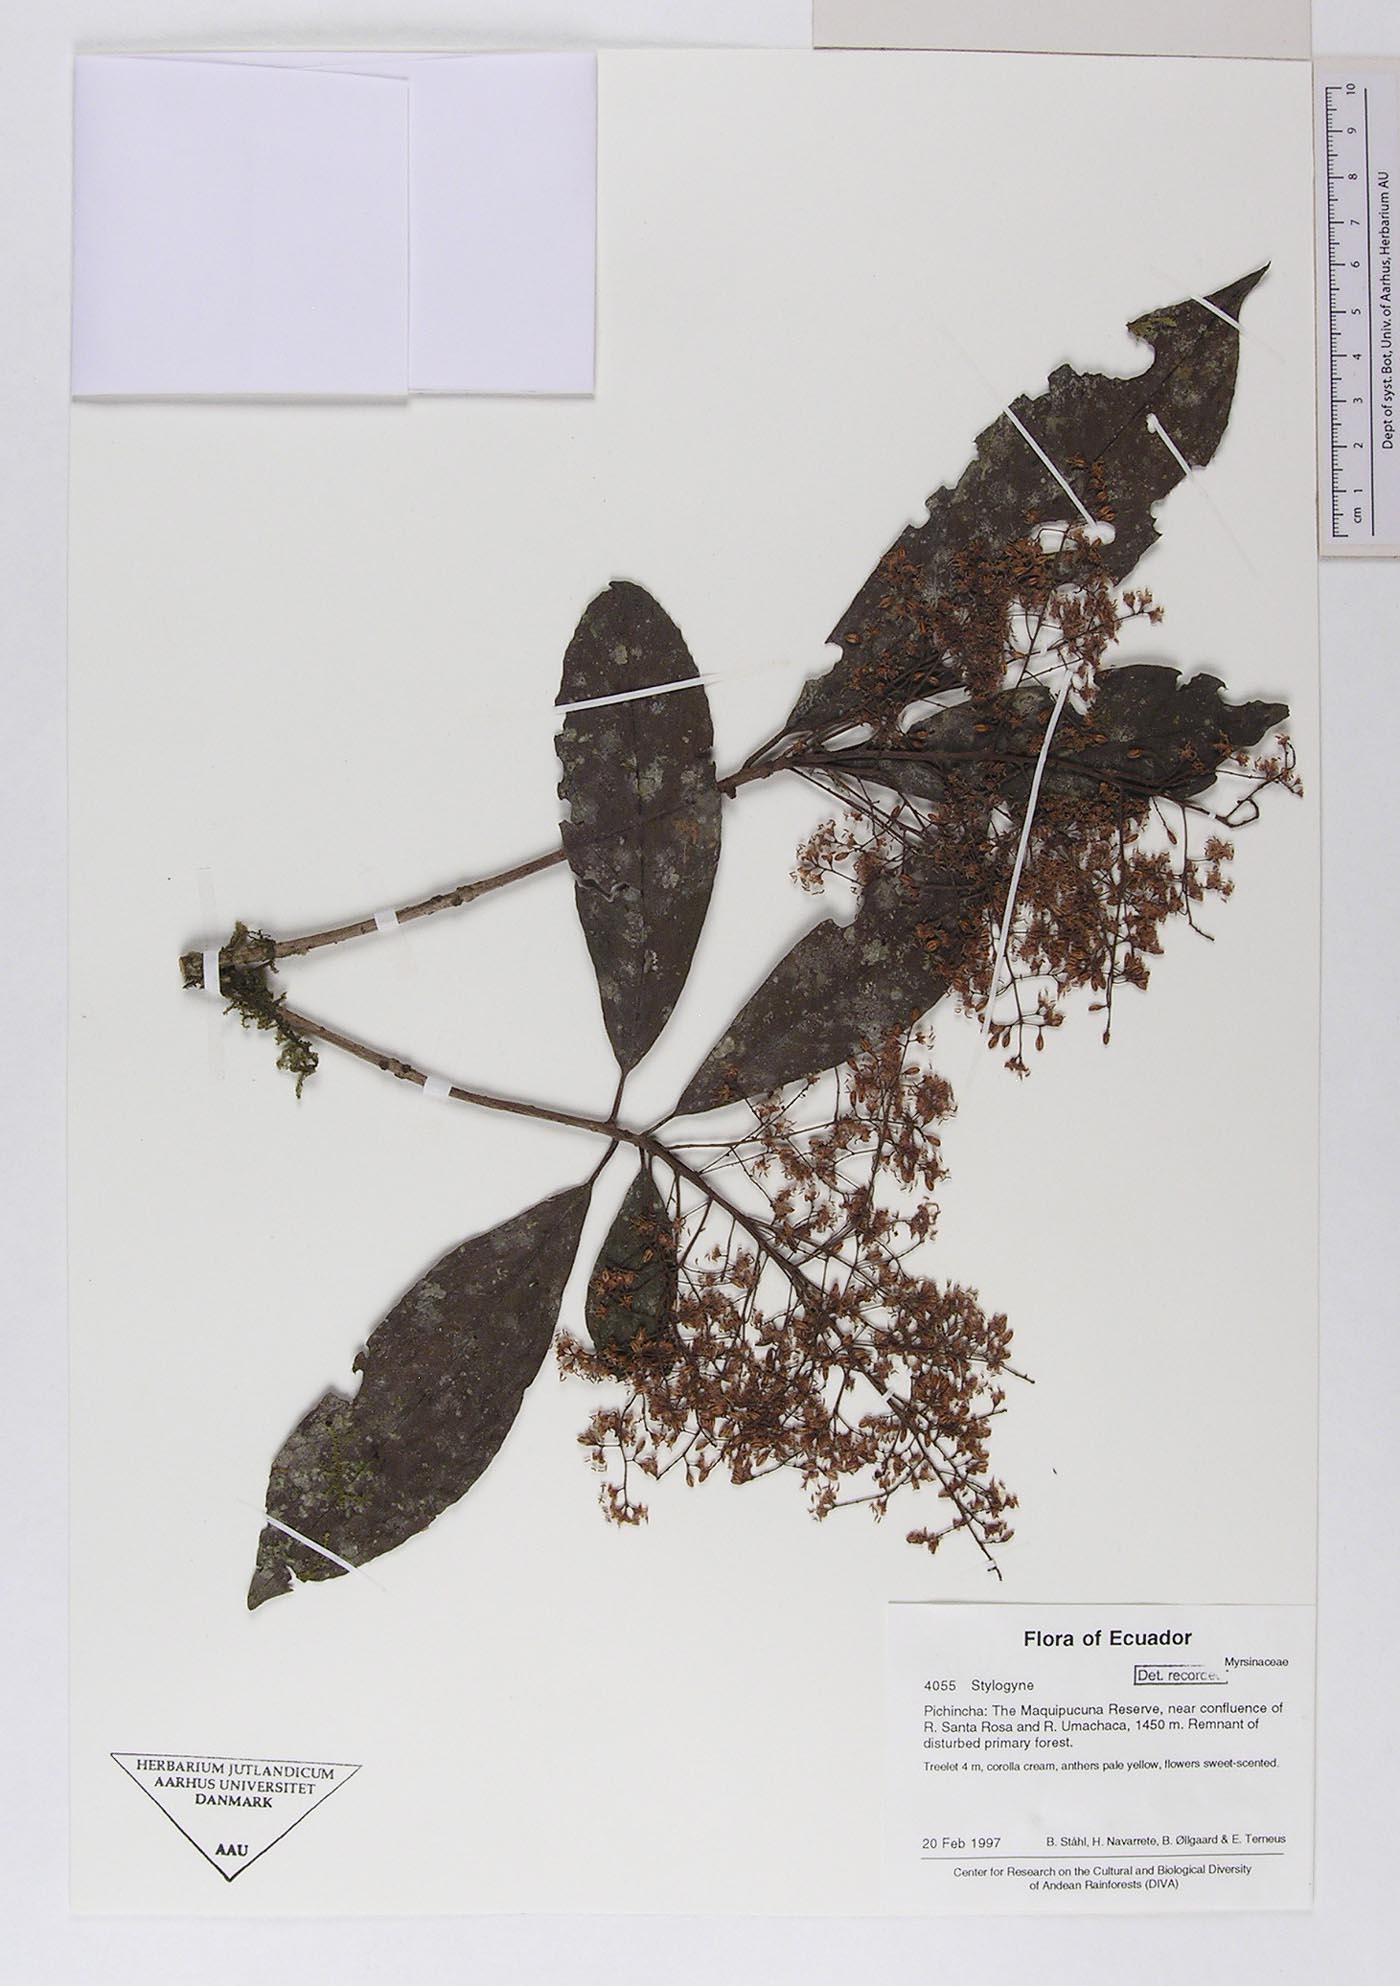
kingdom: Plantae
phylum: Tracheophyta
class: Magnoliopsida
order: Ericales
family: Primulaceae
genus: Stylogyne
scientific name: Stylogyne
